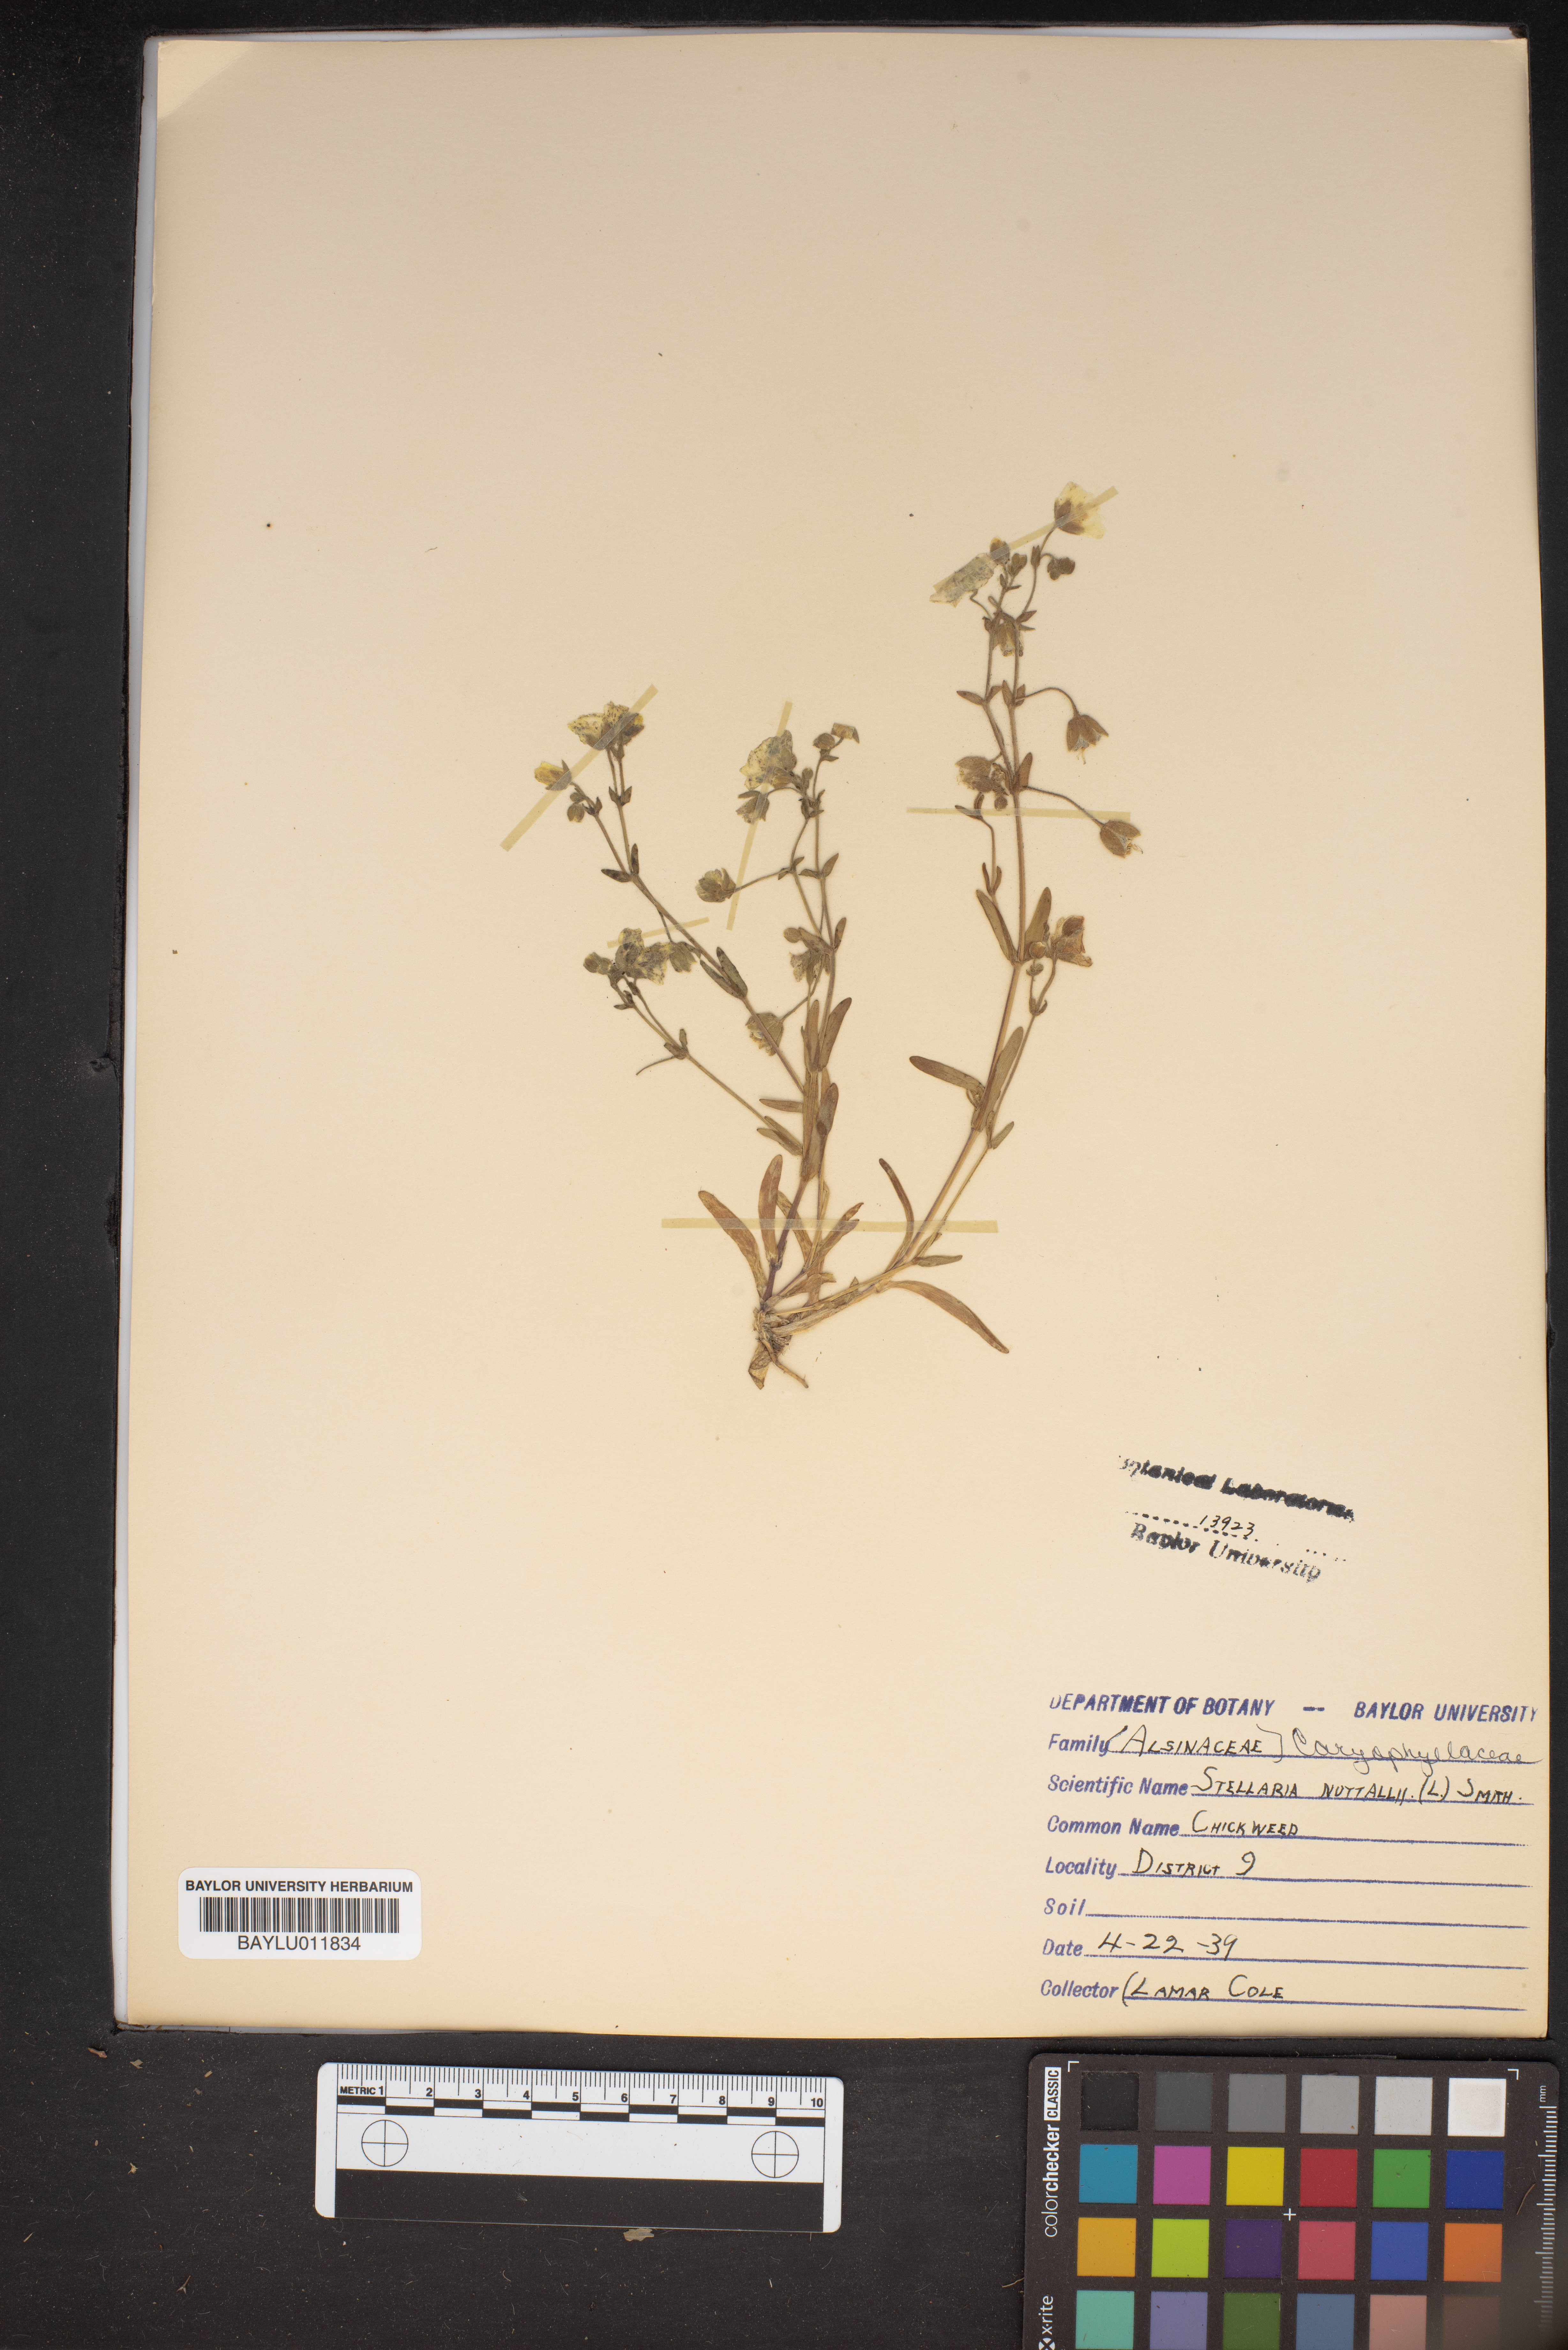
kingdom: Plantae
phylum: Tracheophyta
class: Magnoliopsida
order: Caryophyllales
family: Caryophyllaceae
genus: Geocarpon
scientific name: Geocarpon nuttallii
